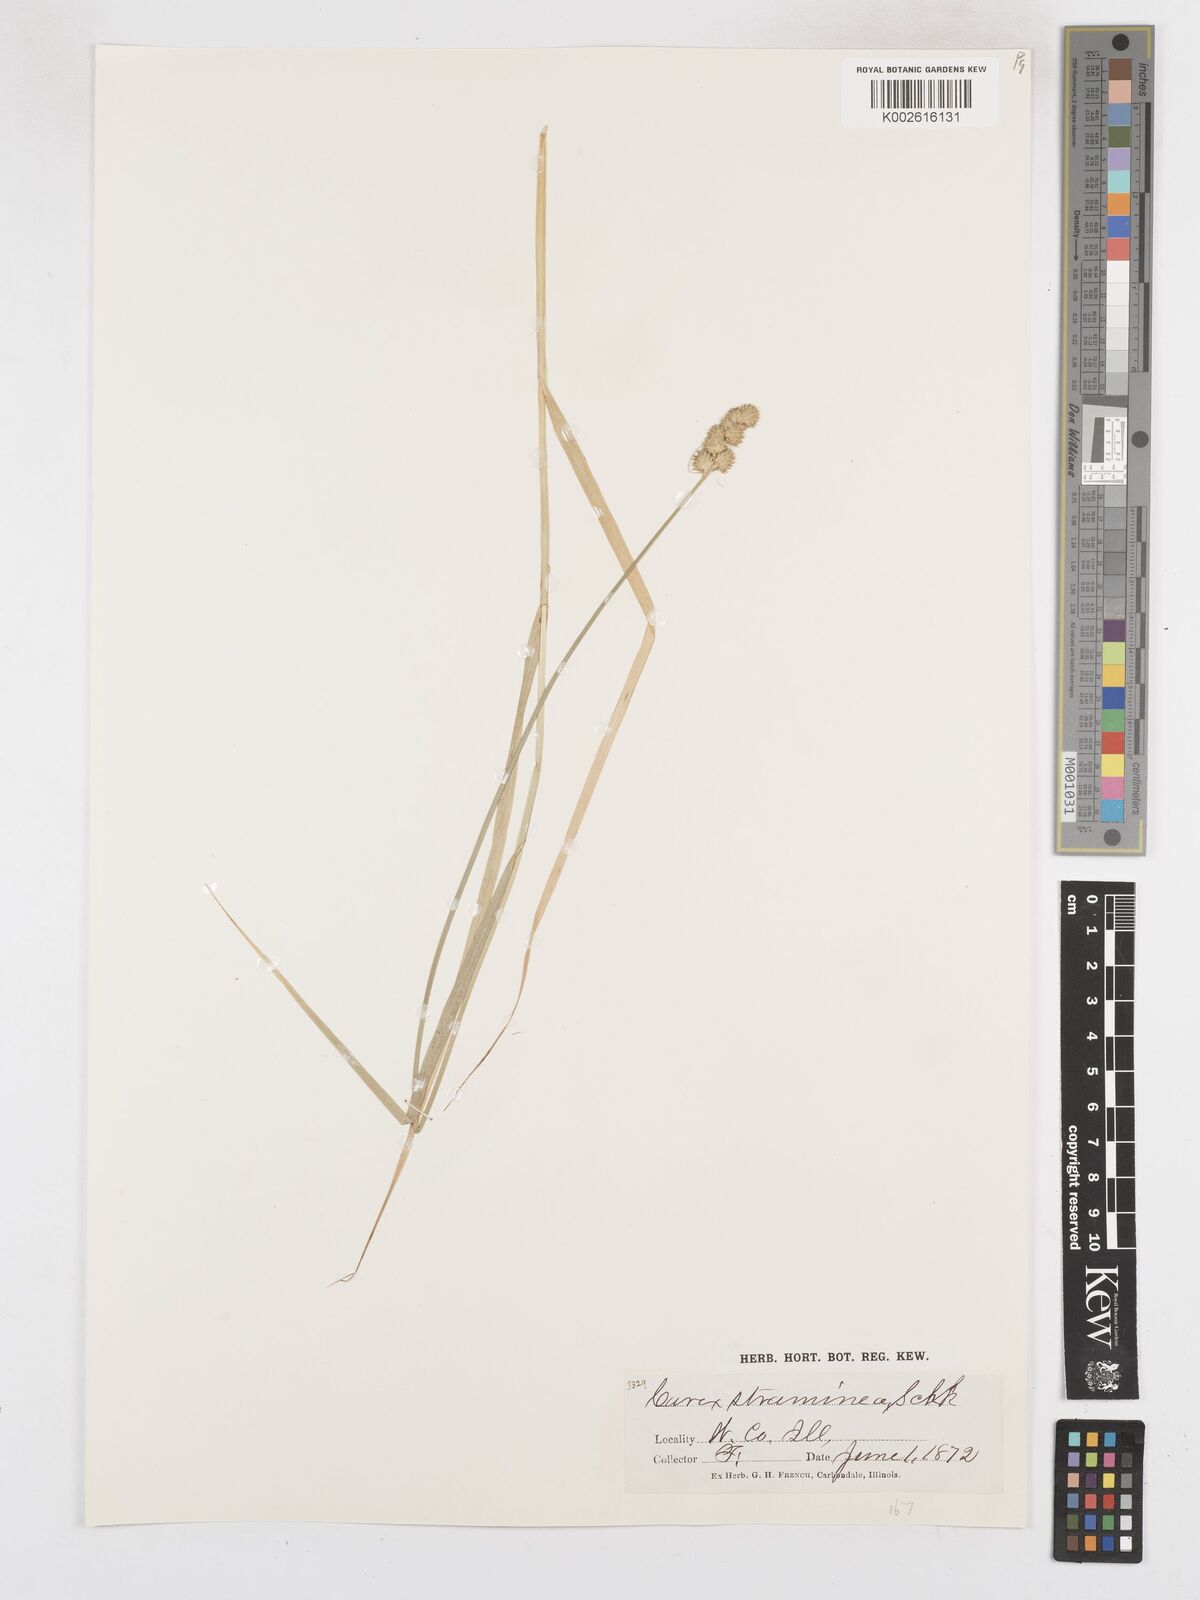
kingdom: Plantae
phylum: Tracheophyta
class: Liliopsida
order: Poales
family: Cyperaceae
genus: Carex
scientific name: Carex brevior
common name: Brevior sedge
